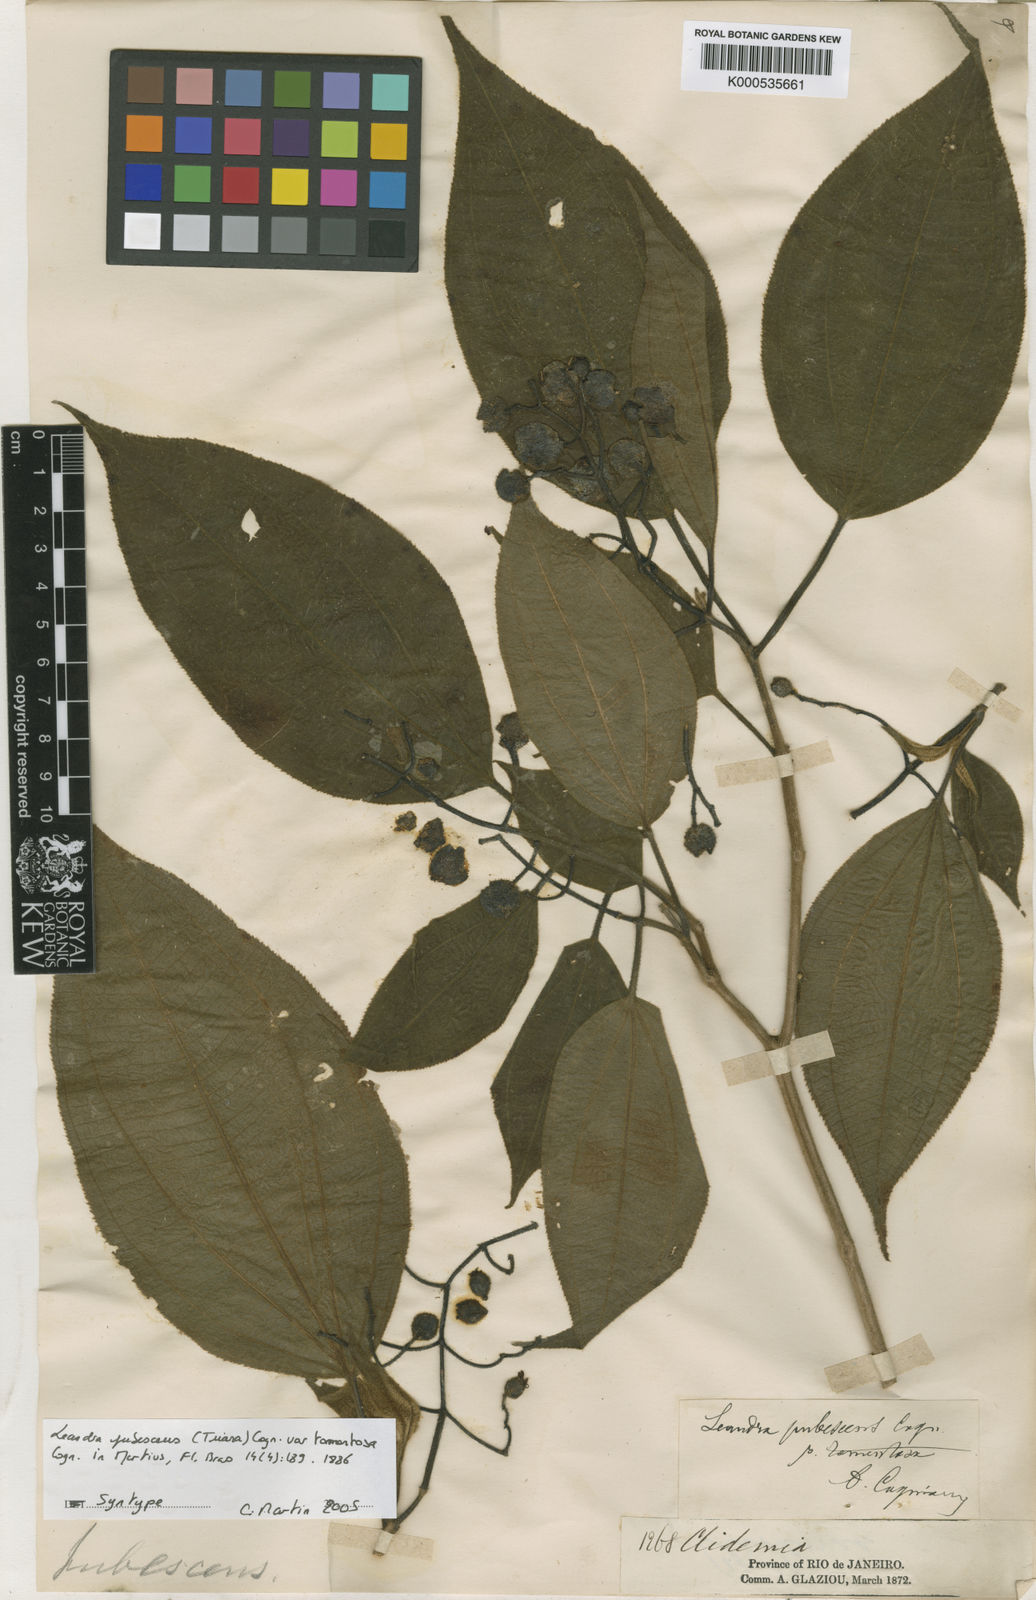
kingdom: Plantae
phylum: Tracheophyta
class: Magnoliopsida
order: Myrtales
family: Melastomataceae
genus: Miconia
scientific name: Miconia
